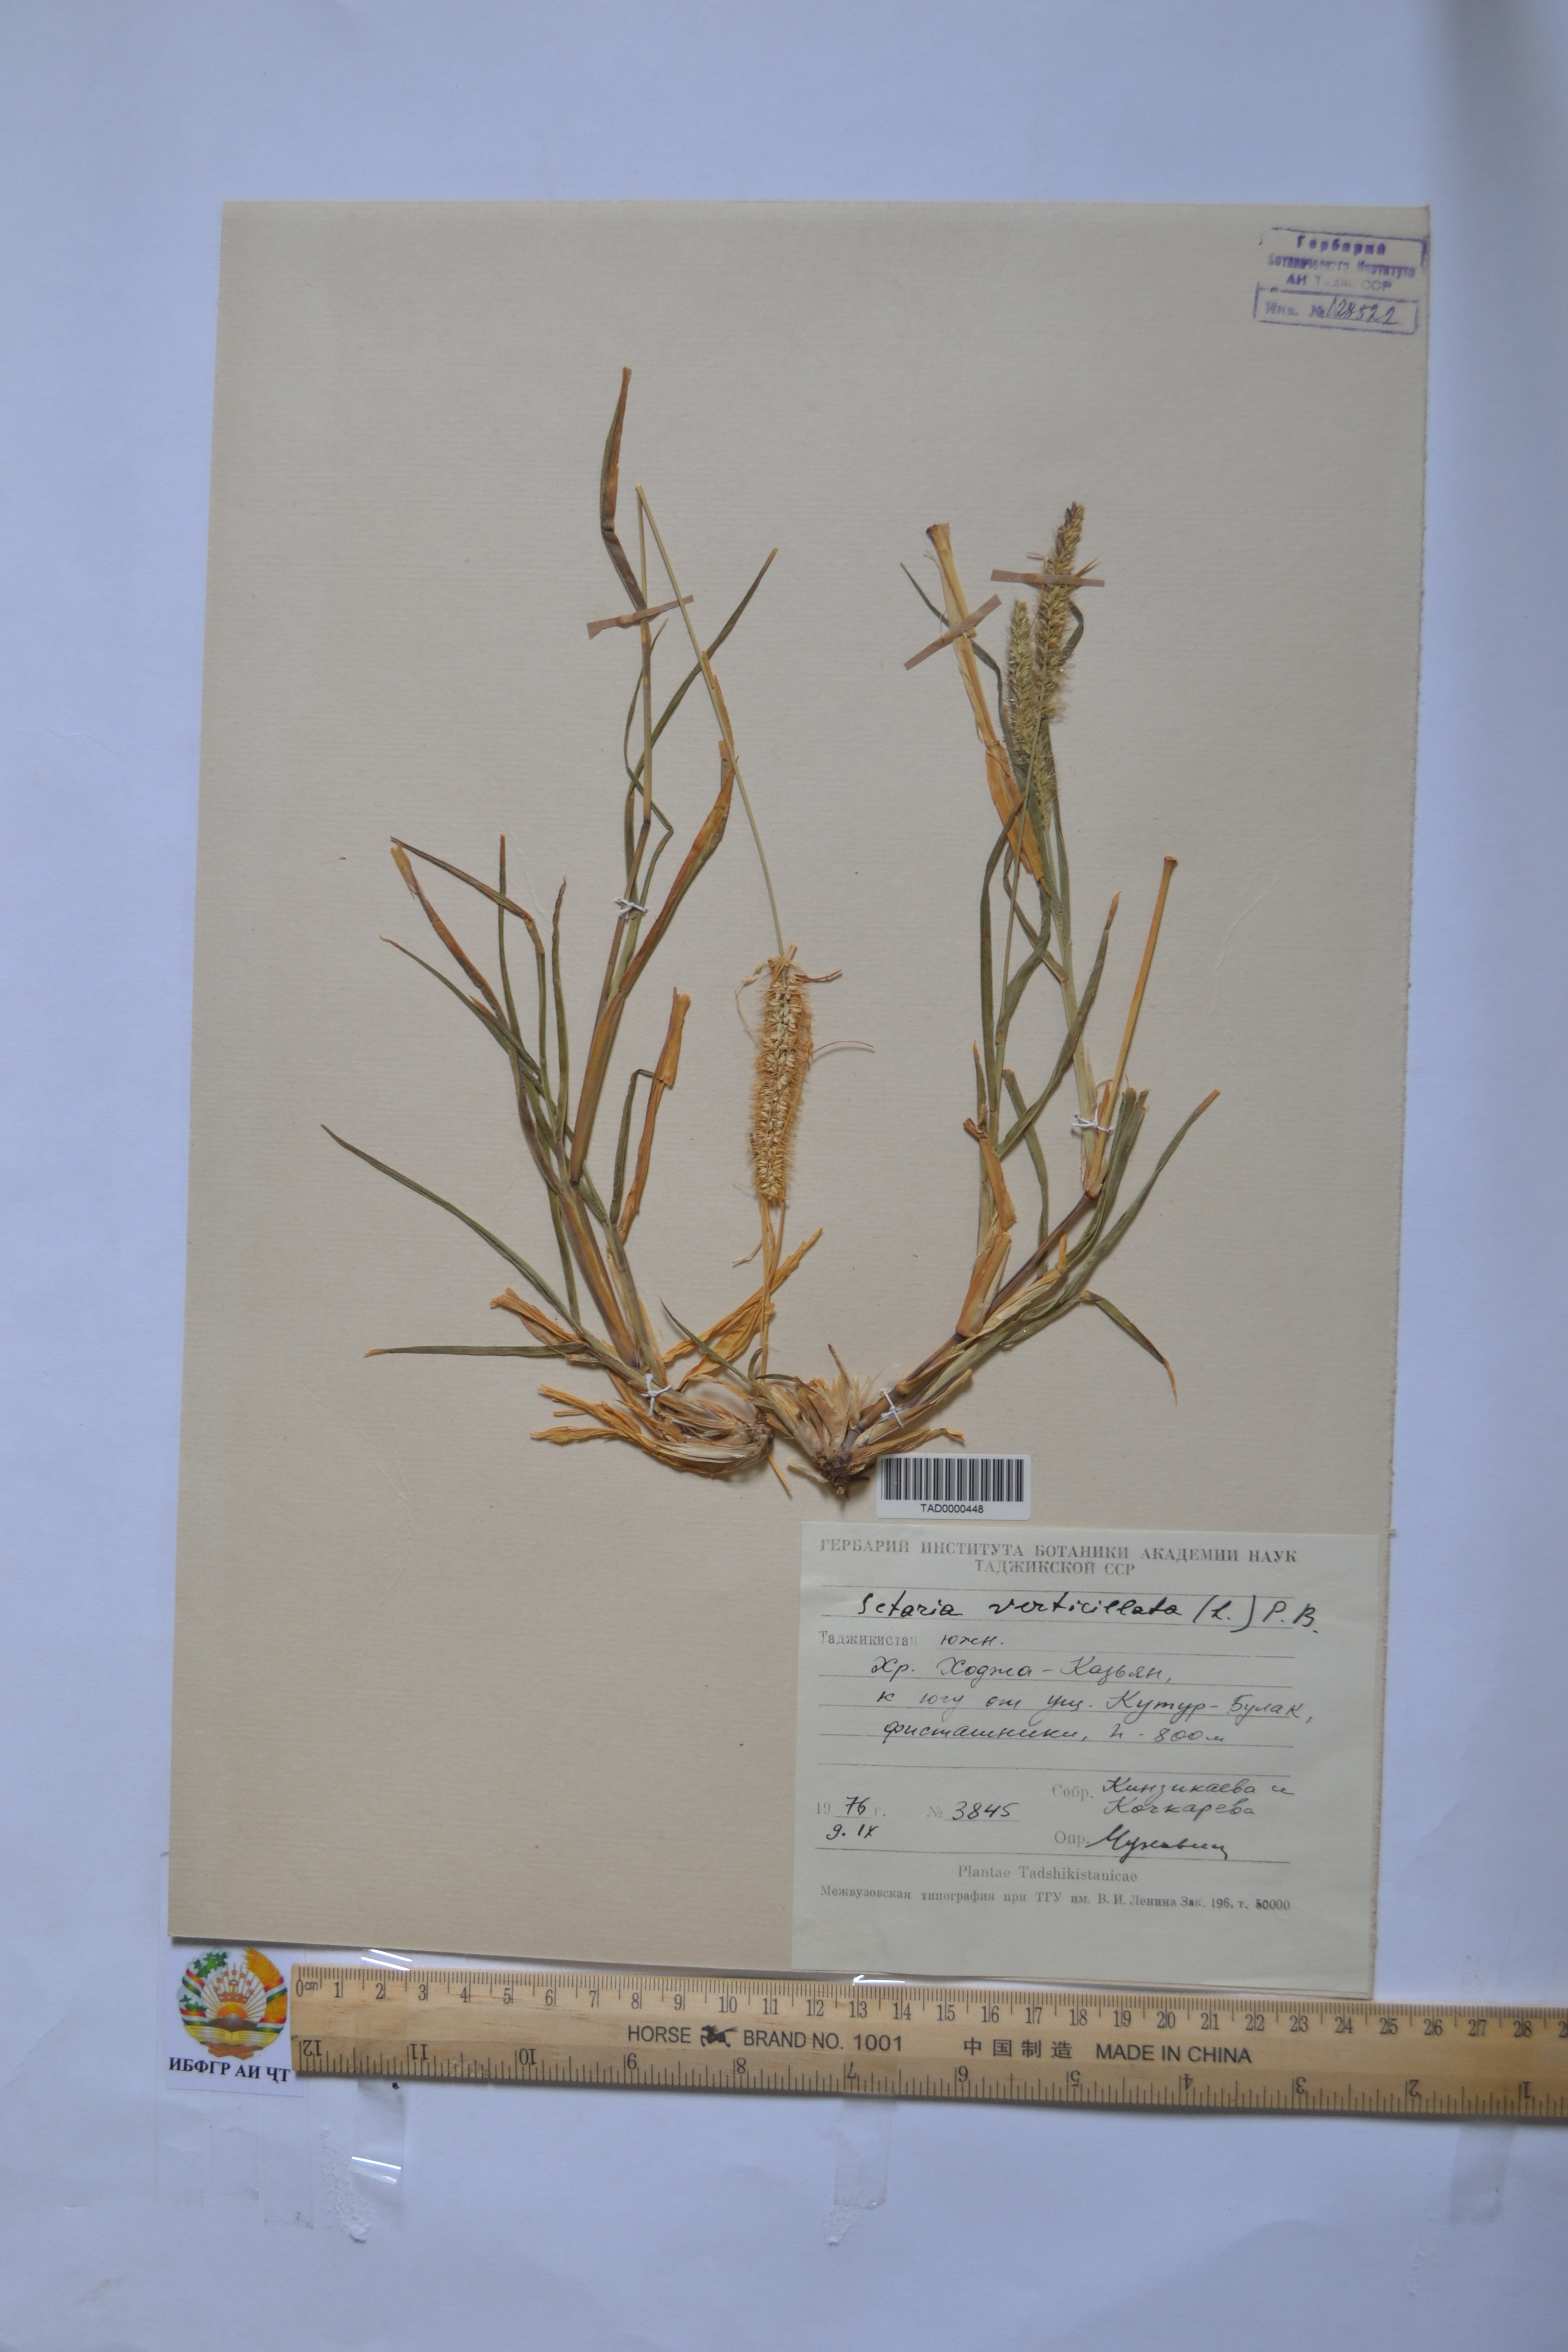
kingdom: Plantae
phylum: Tracheophyta
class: Liliopsida
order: Poales
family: Poaceae
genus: Setaria
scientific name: Setaria verticillata
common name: Hooked bristlegrass
